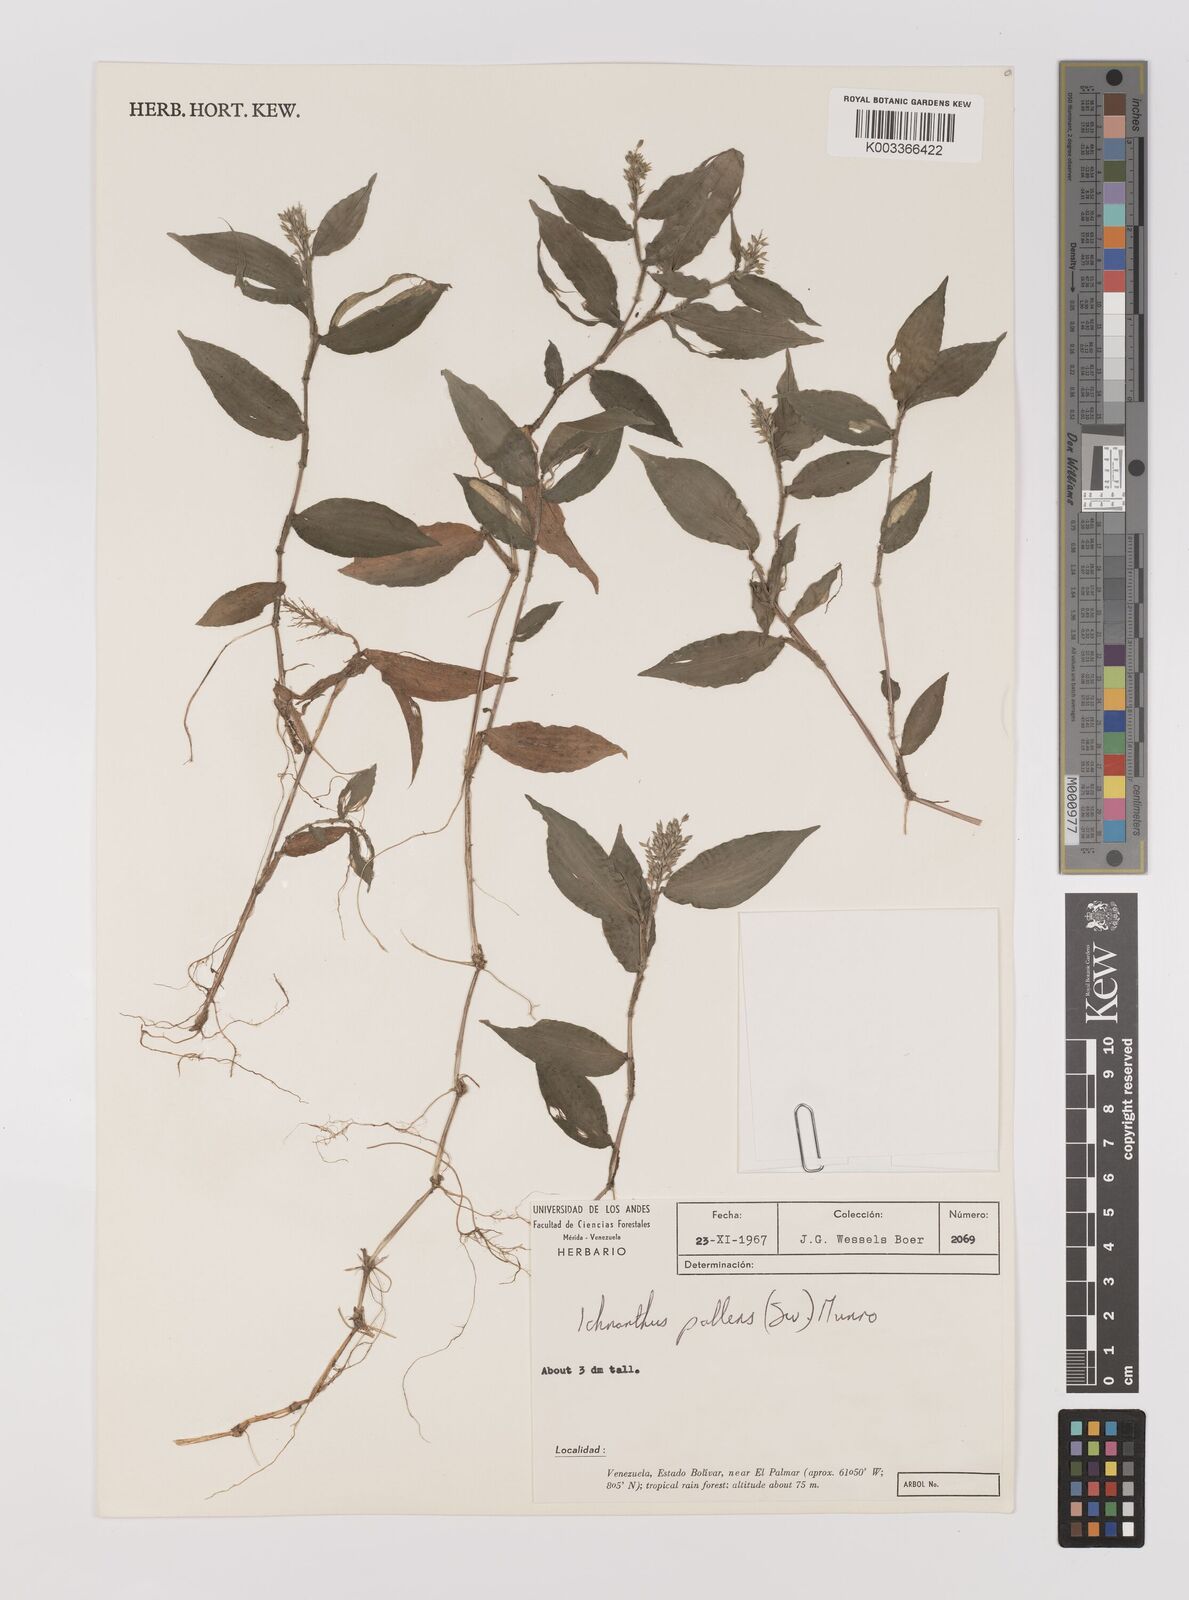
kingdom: Plantae
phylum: Tracheophyta
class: Liliopsida
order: Poales
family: Poaceae
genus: Ichnanthus
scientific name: Ichnanthus pallens
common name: Water grass
